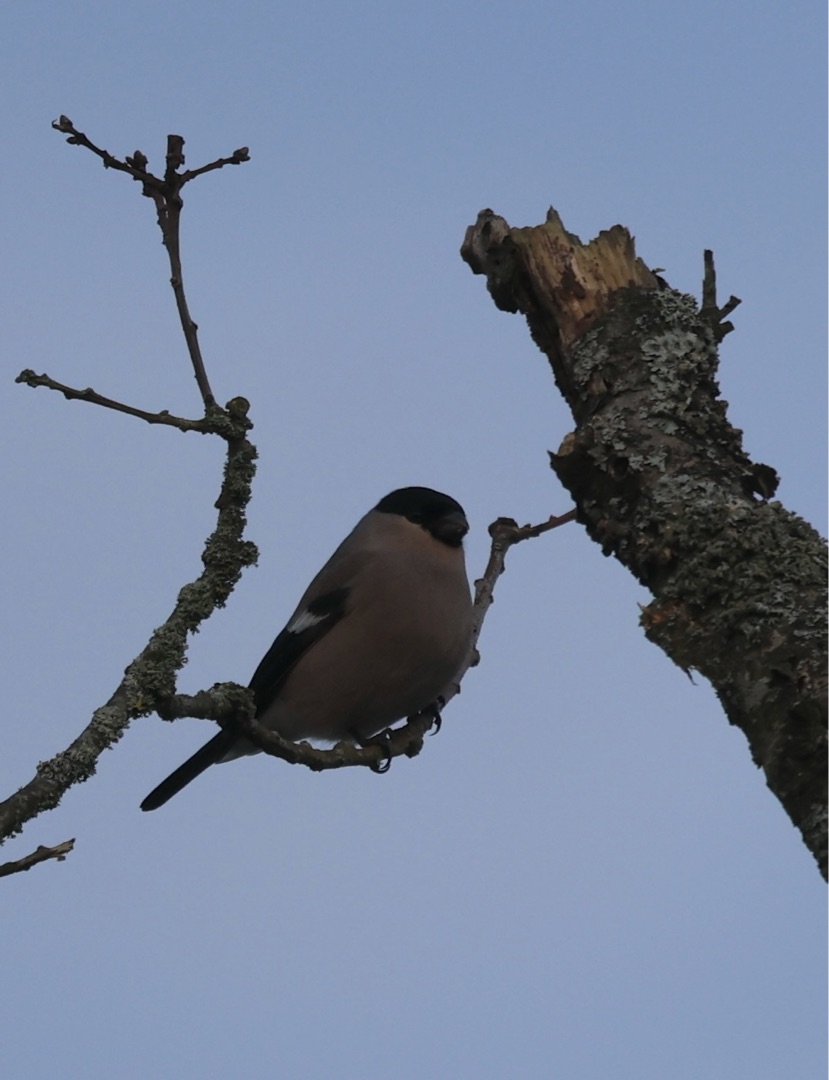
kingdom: Animalia
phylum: Chordata
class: Aves
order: Passeriformes
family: Fringillidae
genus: Pyrrhula
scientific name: Pyrrhula pyrrhula
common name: Dompap
